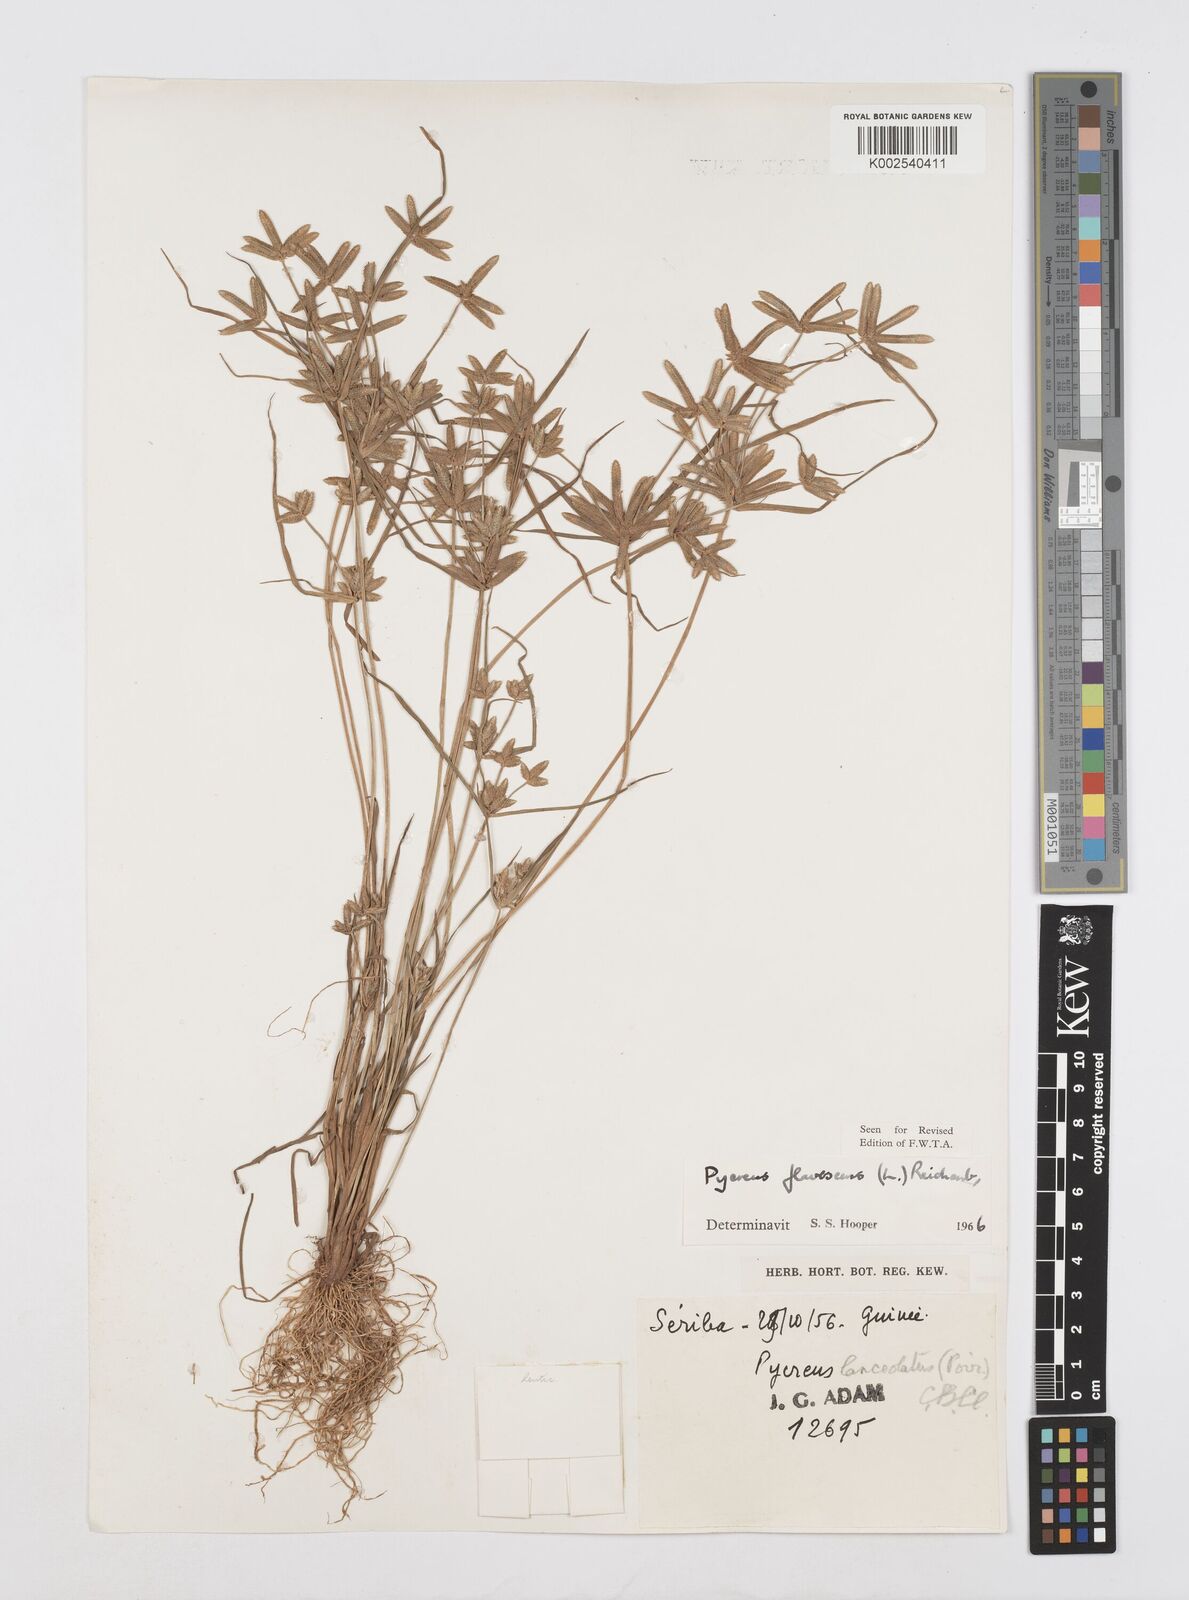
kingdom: Plantae
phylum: Tracheophyta
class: Liliopsida
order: Poales
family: Cyperaceae
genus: Cyperus
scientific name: Cyperus flavescens
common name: Yellow galingale
